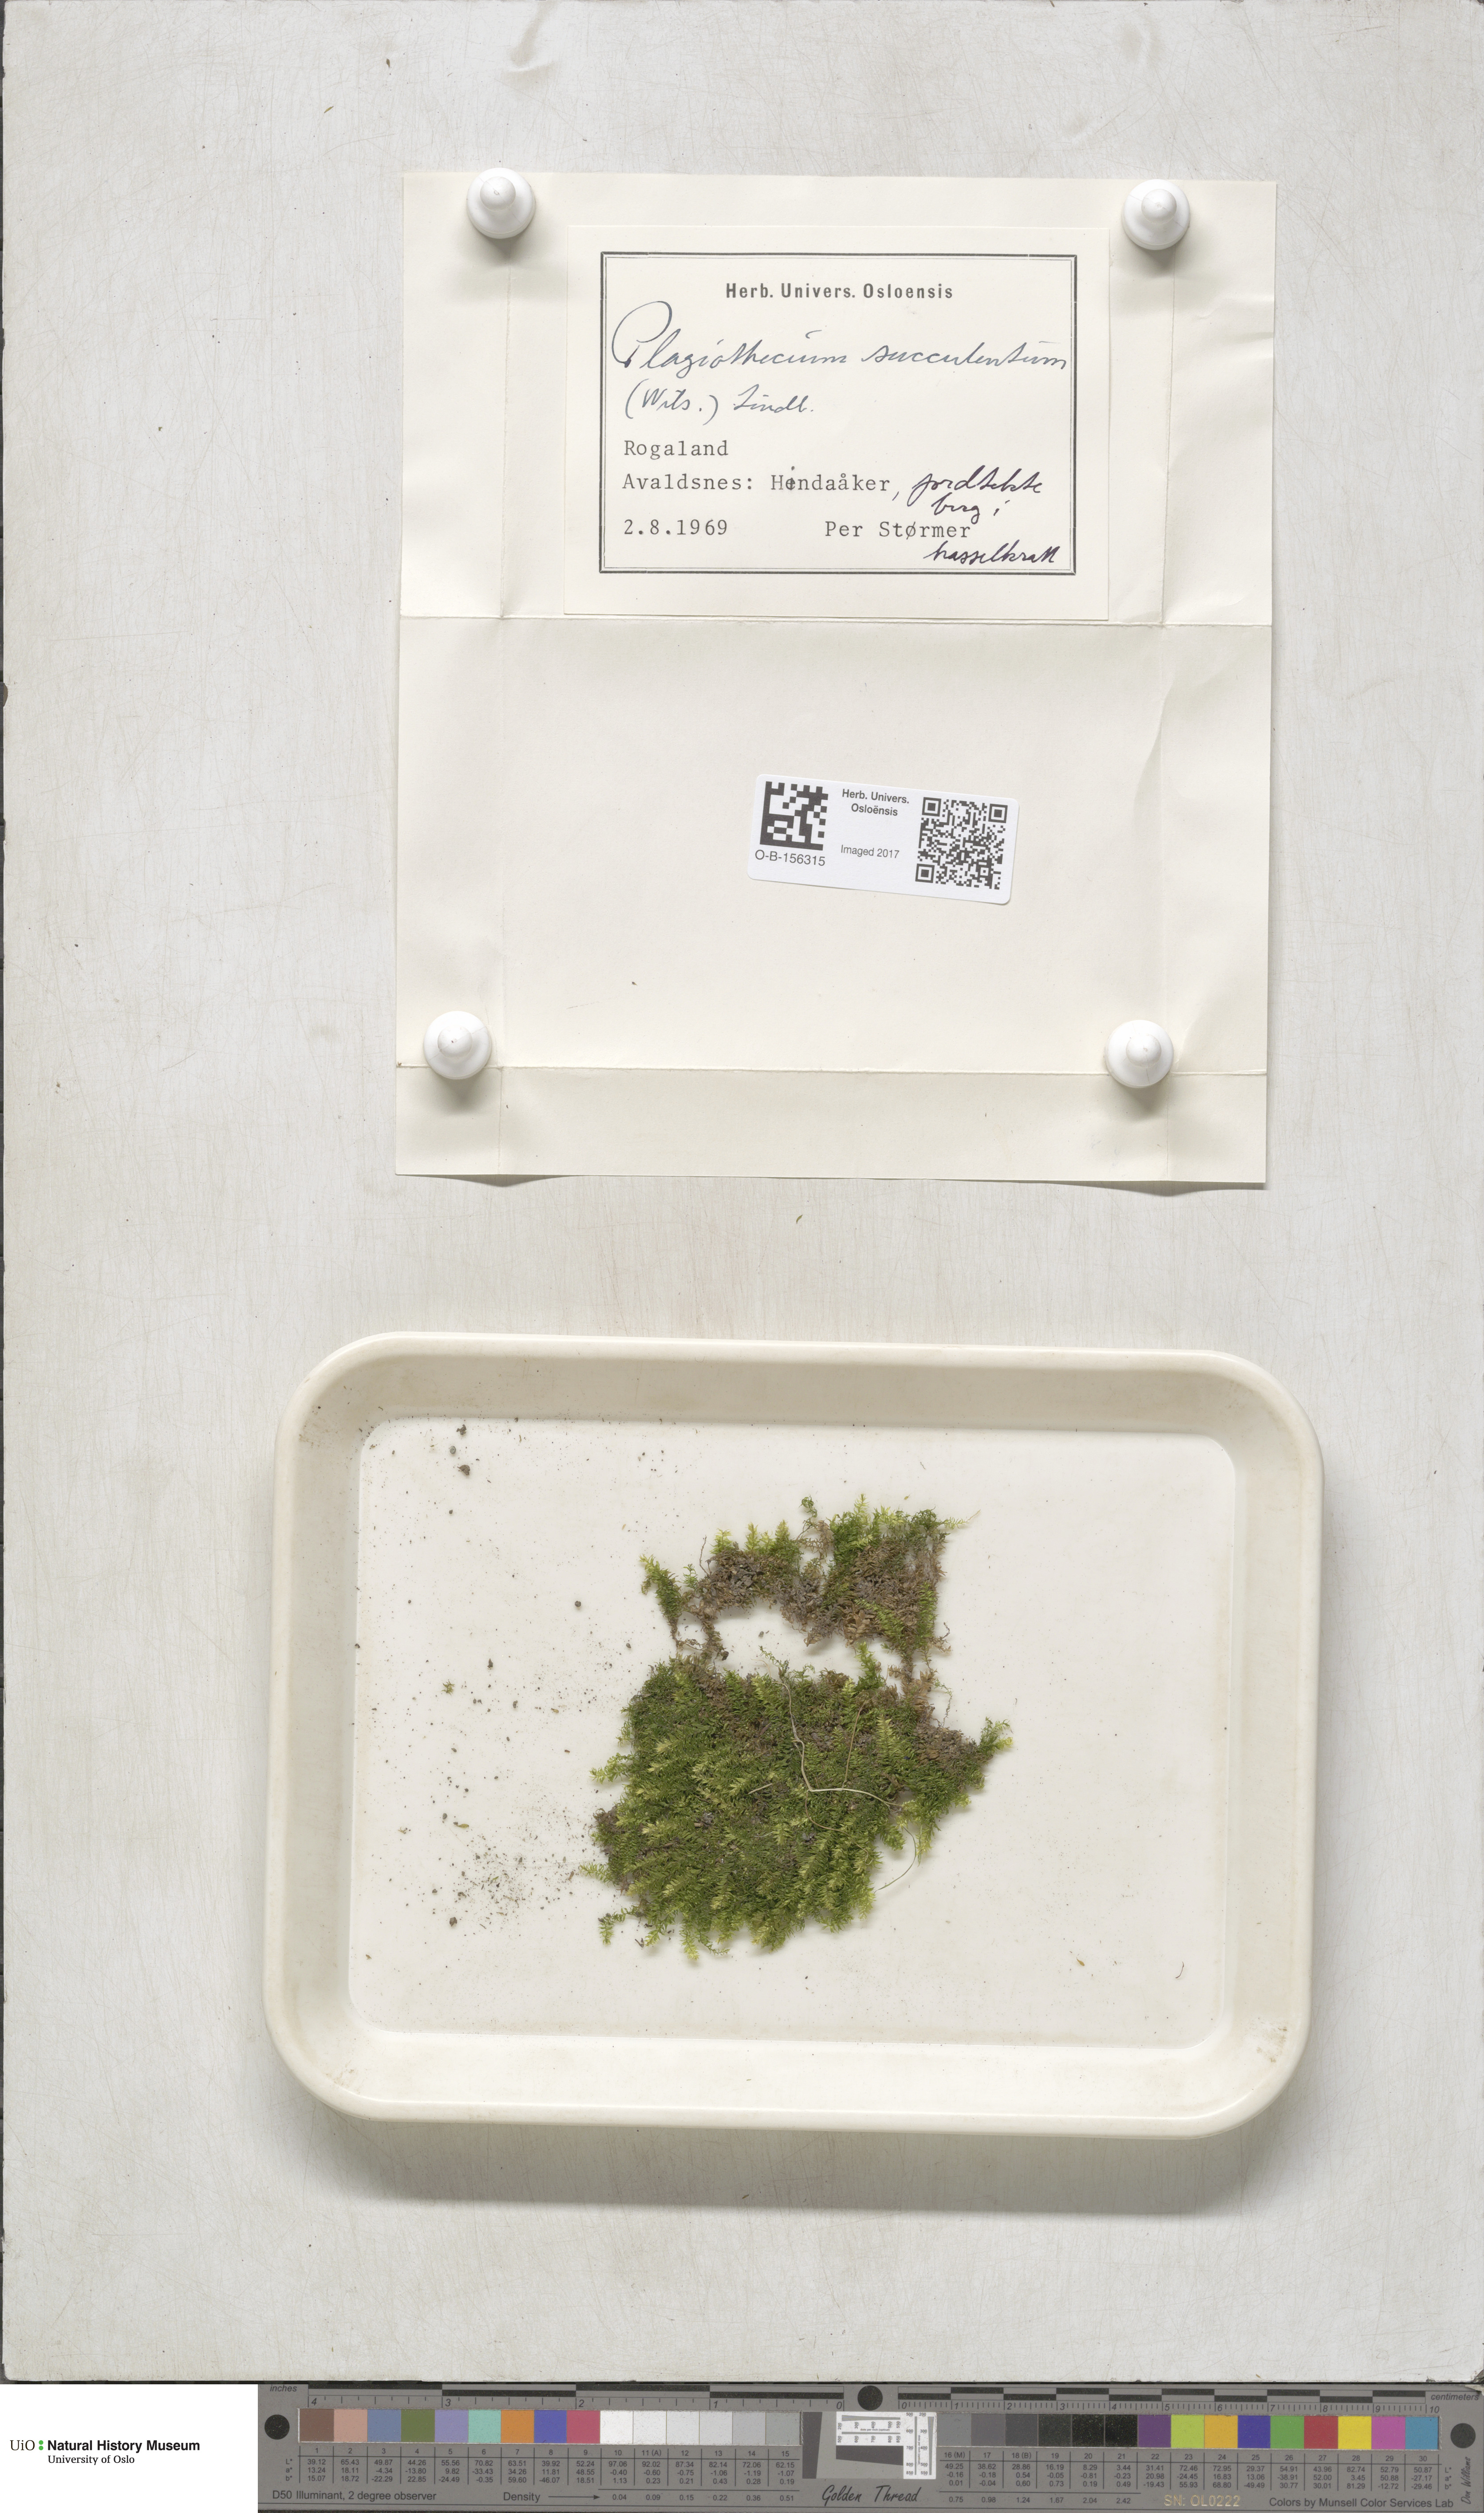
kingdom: Plantae
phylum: Bryophyta
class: Bryopsida
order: Hypnales
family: Plagiotheciaceae
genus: Plagiothecium
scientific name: Plagiothecium nemorale
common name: Woodsy silk-moss
